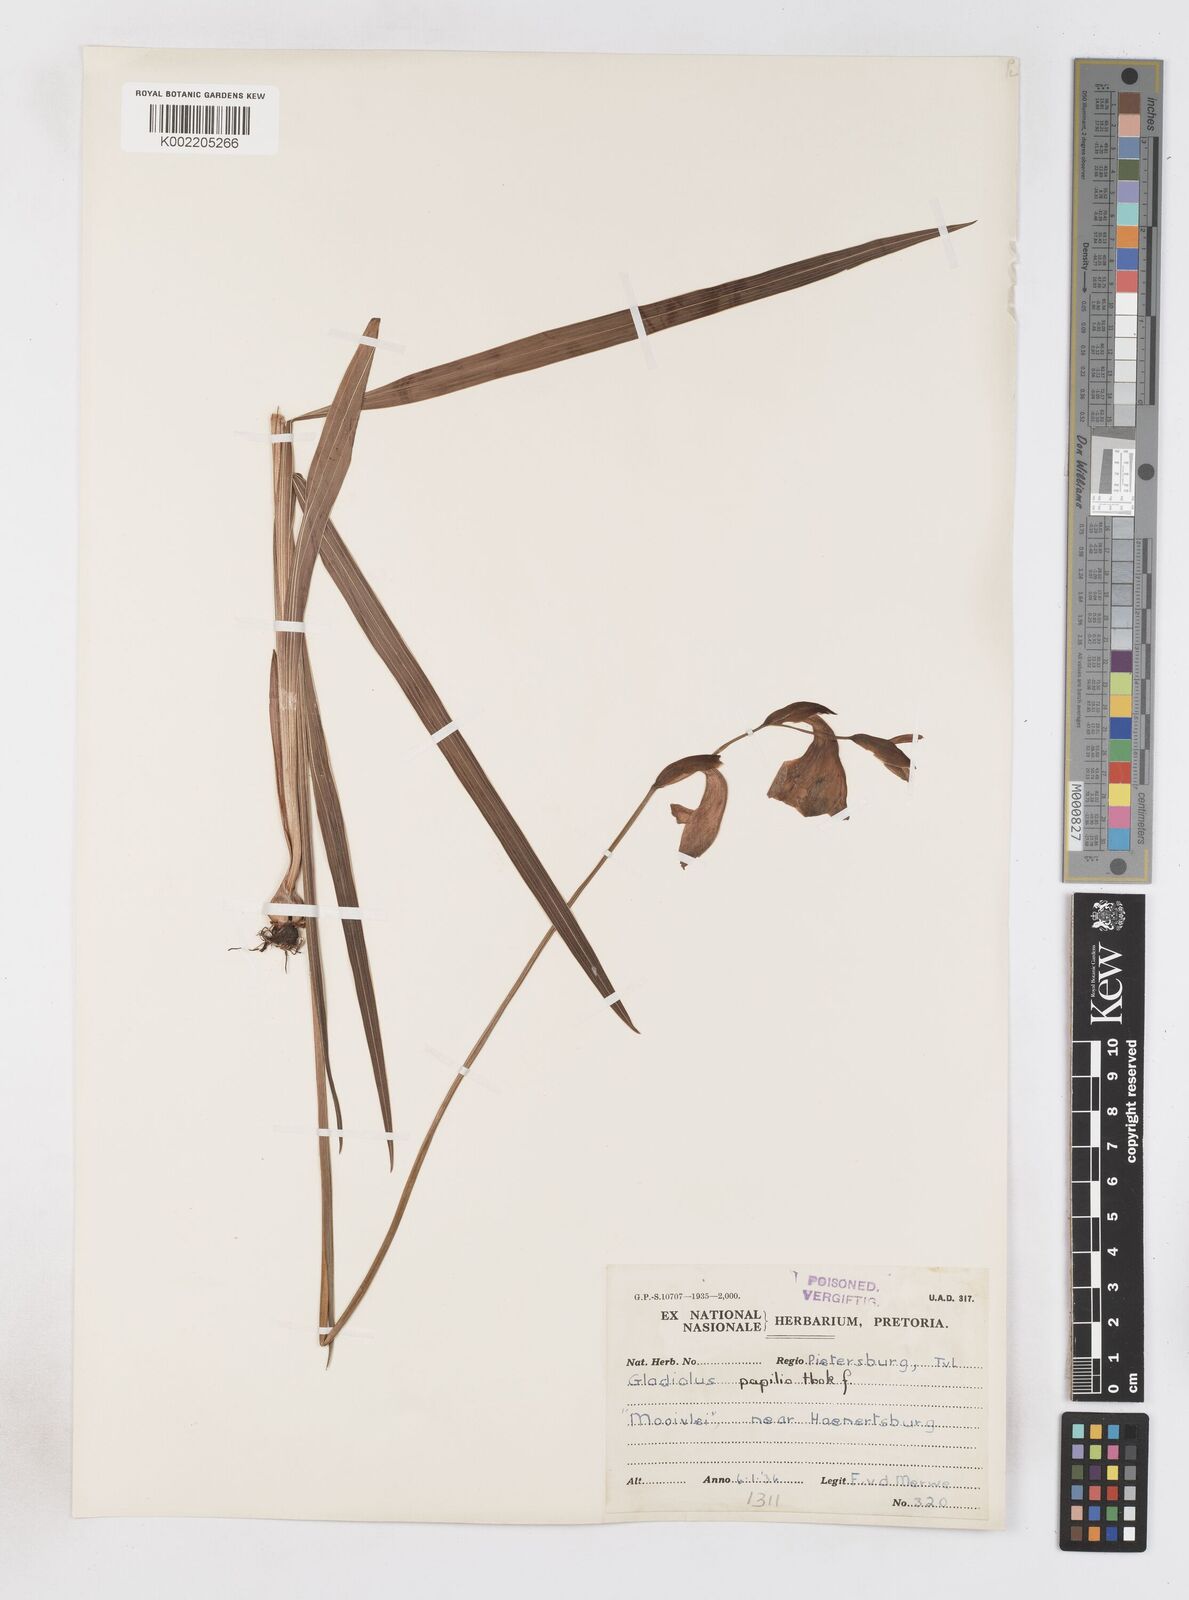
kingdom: Plantae
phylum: Tracheophyta
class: Liliopsida
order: Asparagales
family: Iridaceae
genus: Gladiolus
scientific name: Gladiolus papilio
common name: Goldblotch gladiolus
